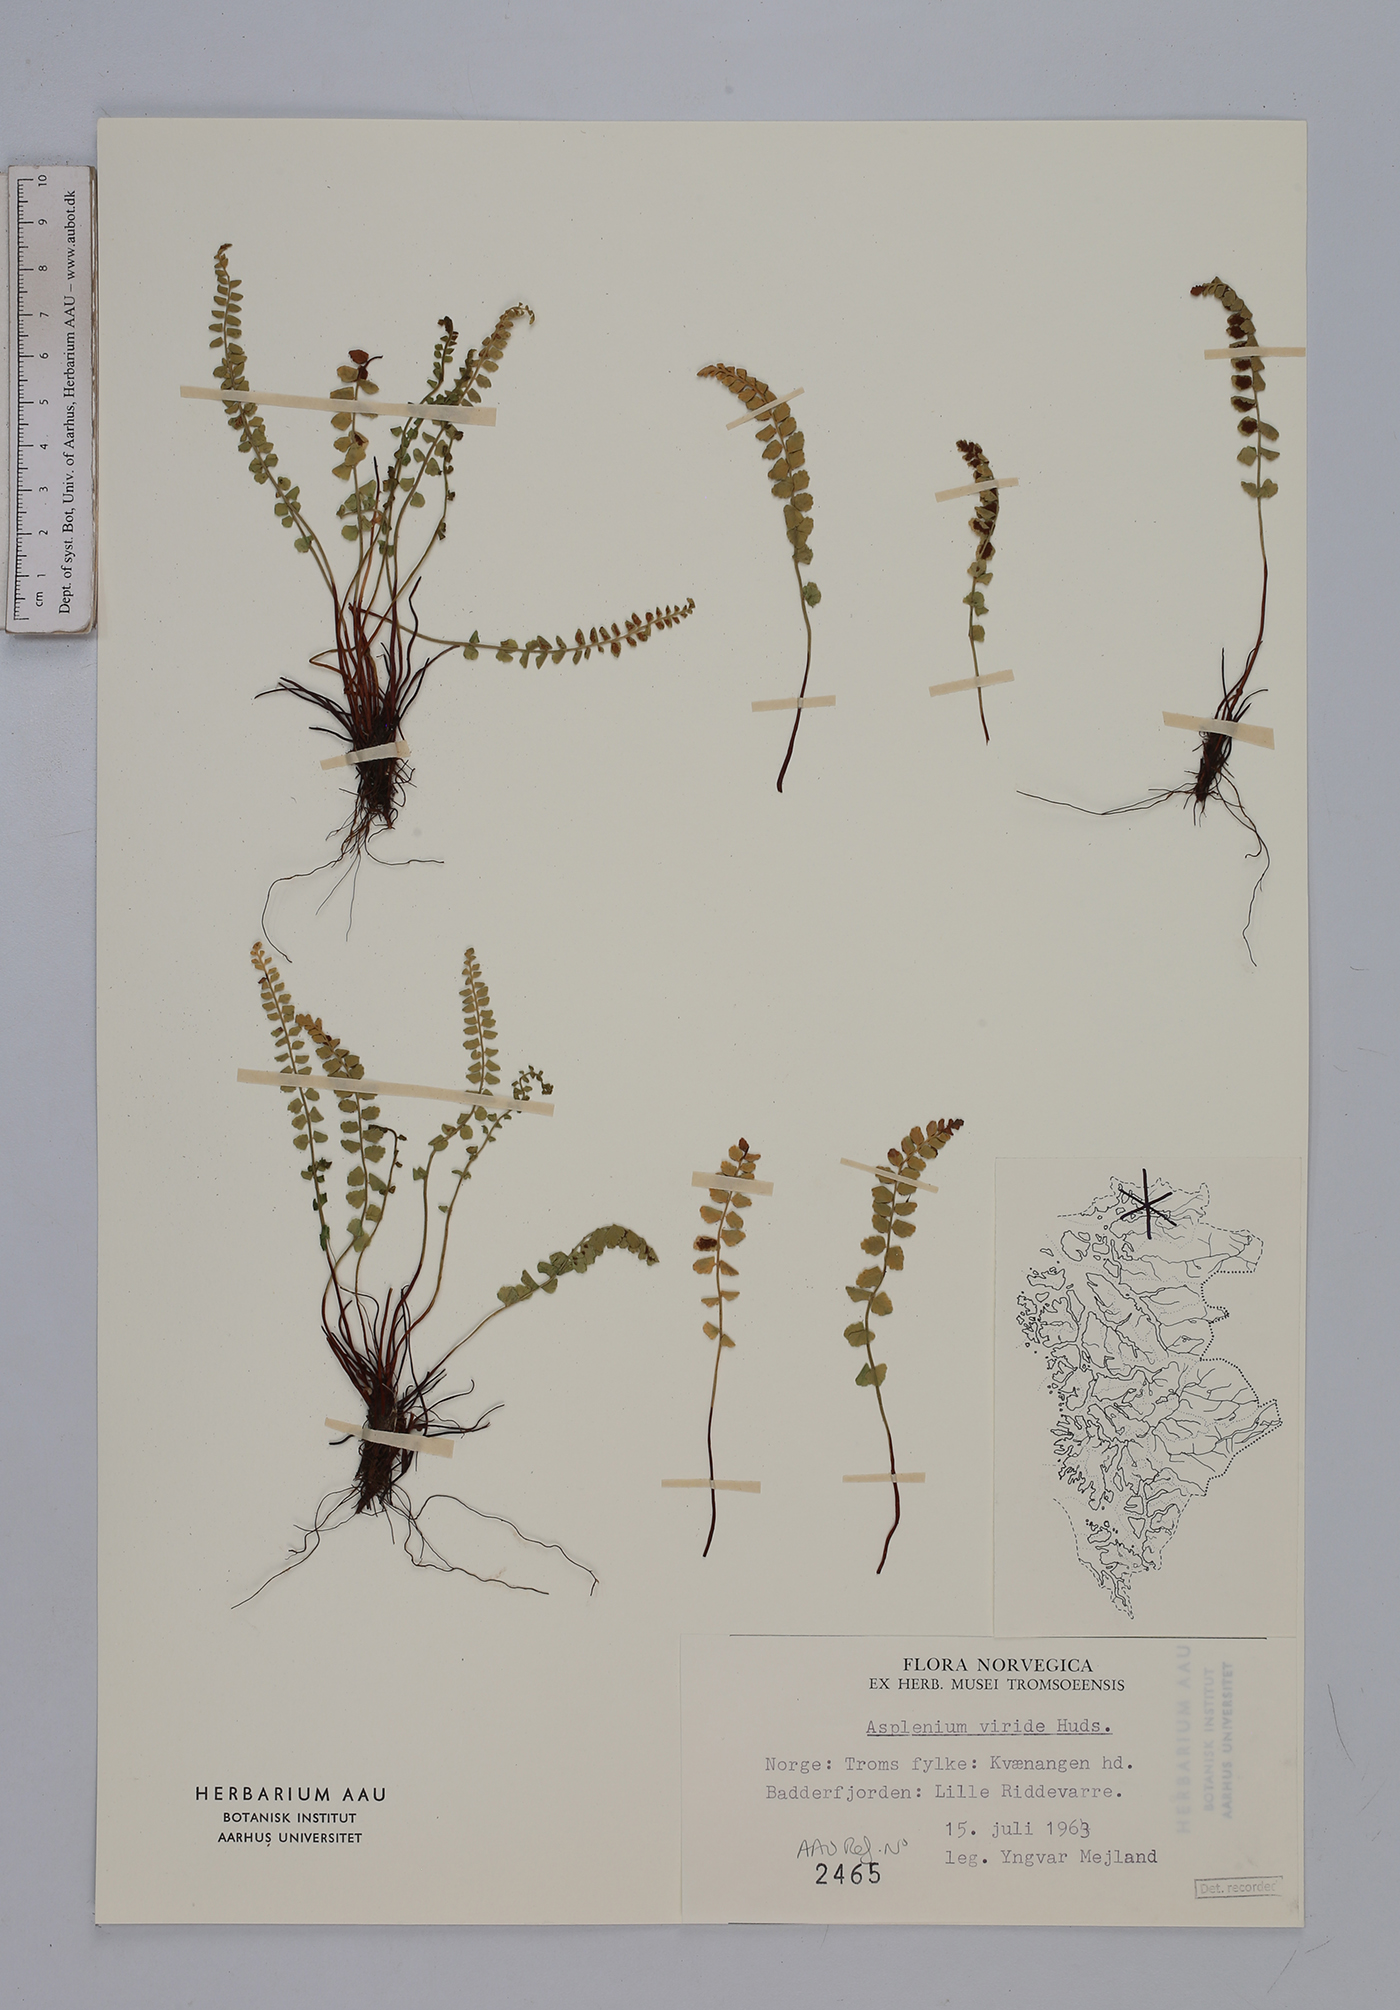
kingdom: Plantae
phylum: Tracheophyta
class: Polypodiopsida
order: Polypodiales
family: Aspleniaceae
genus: Asplenium
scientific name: Asplenium viride
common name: Green spleenwort
